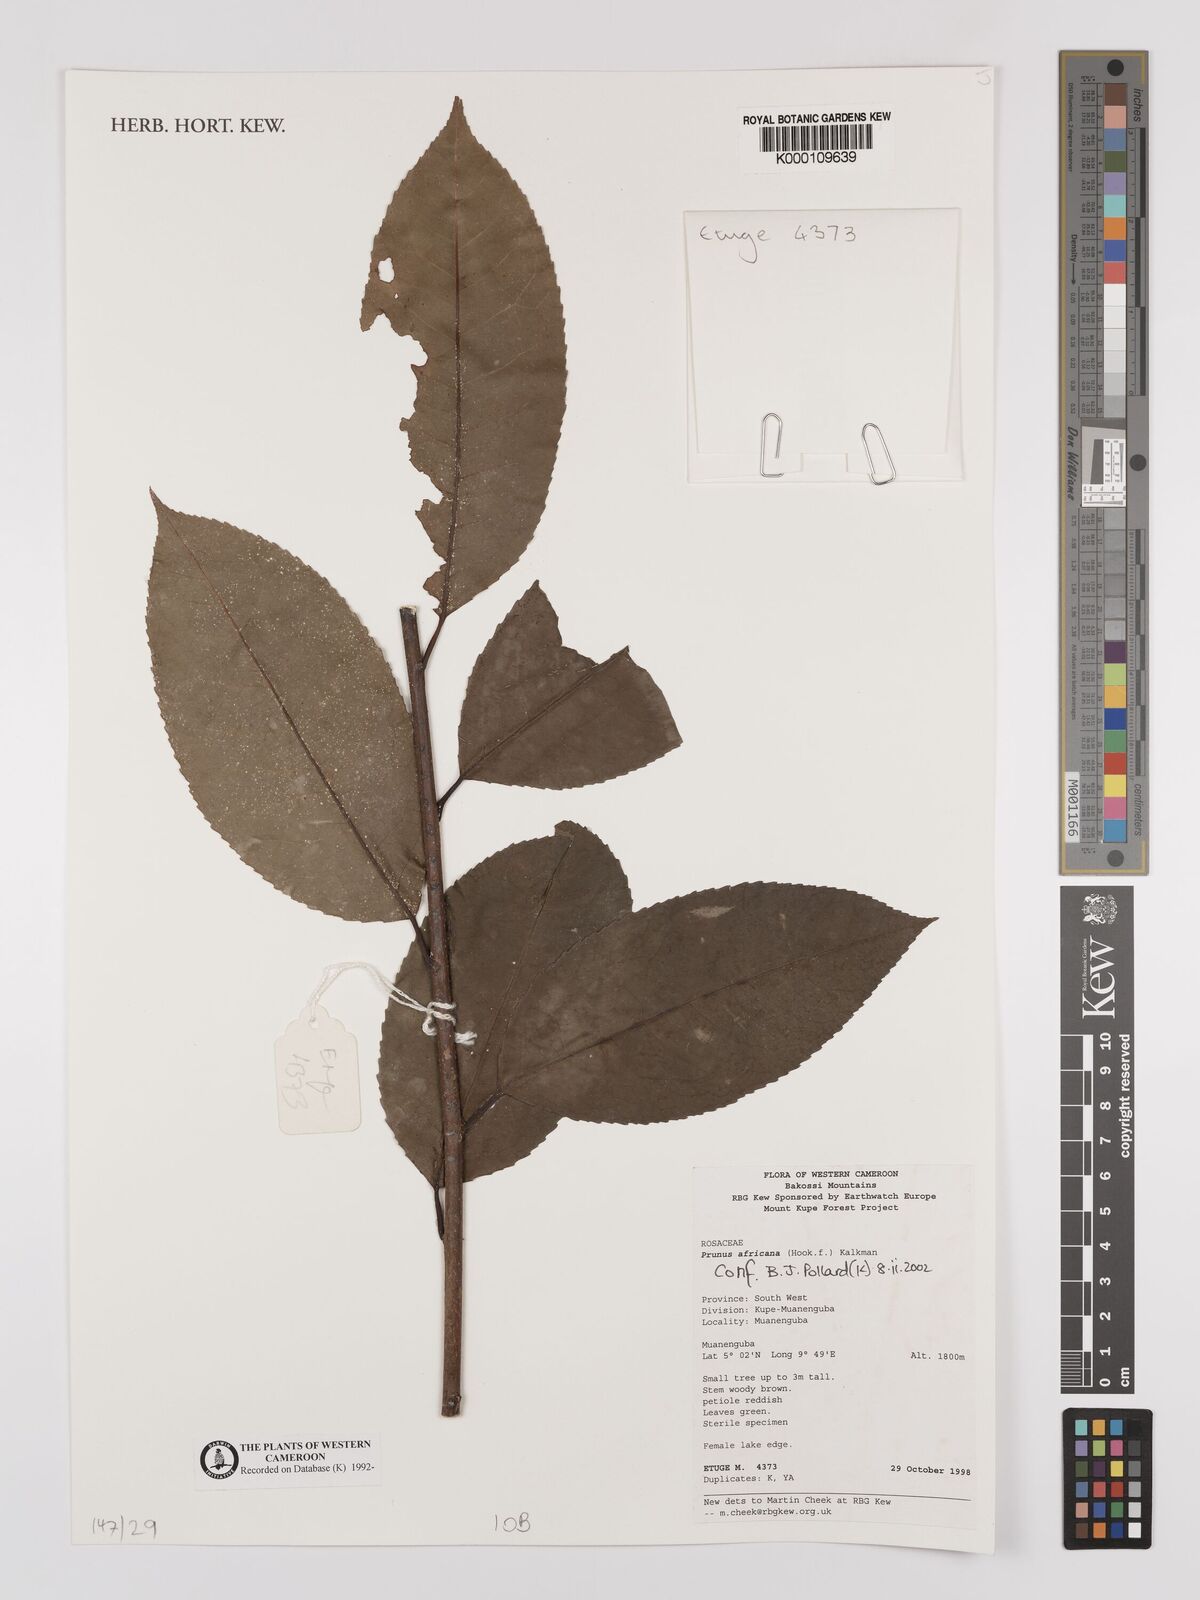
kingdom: Plantae
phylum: Tracheophyta
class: Magnoliopsida
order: Rosales
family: Rosaceae
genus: Prunus
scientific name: Prunus africana
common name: African cherry
